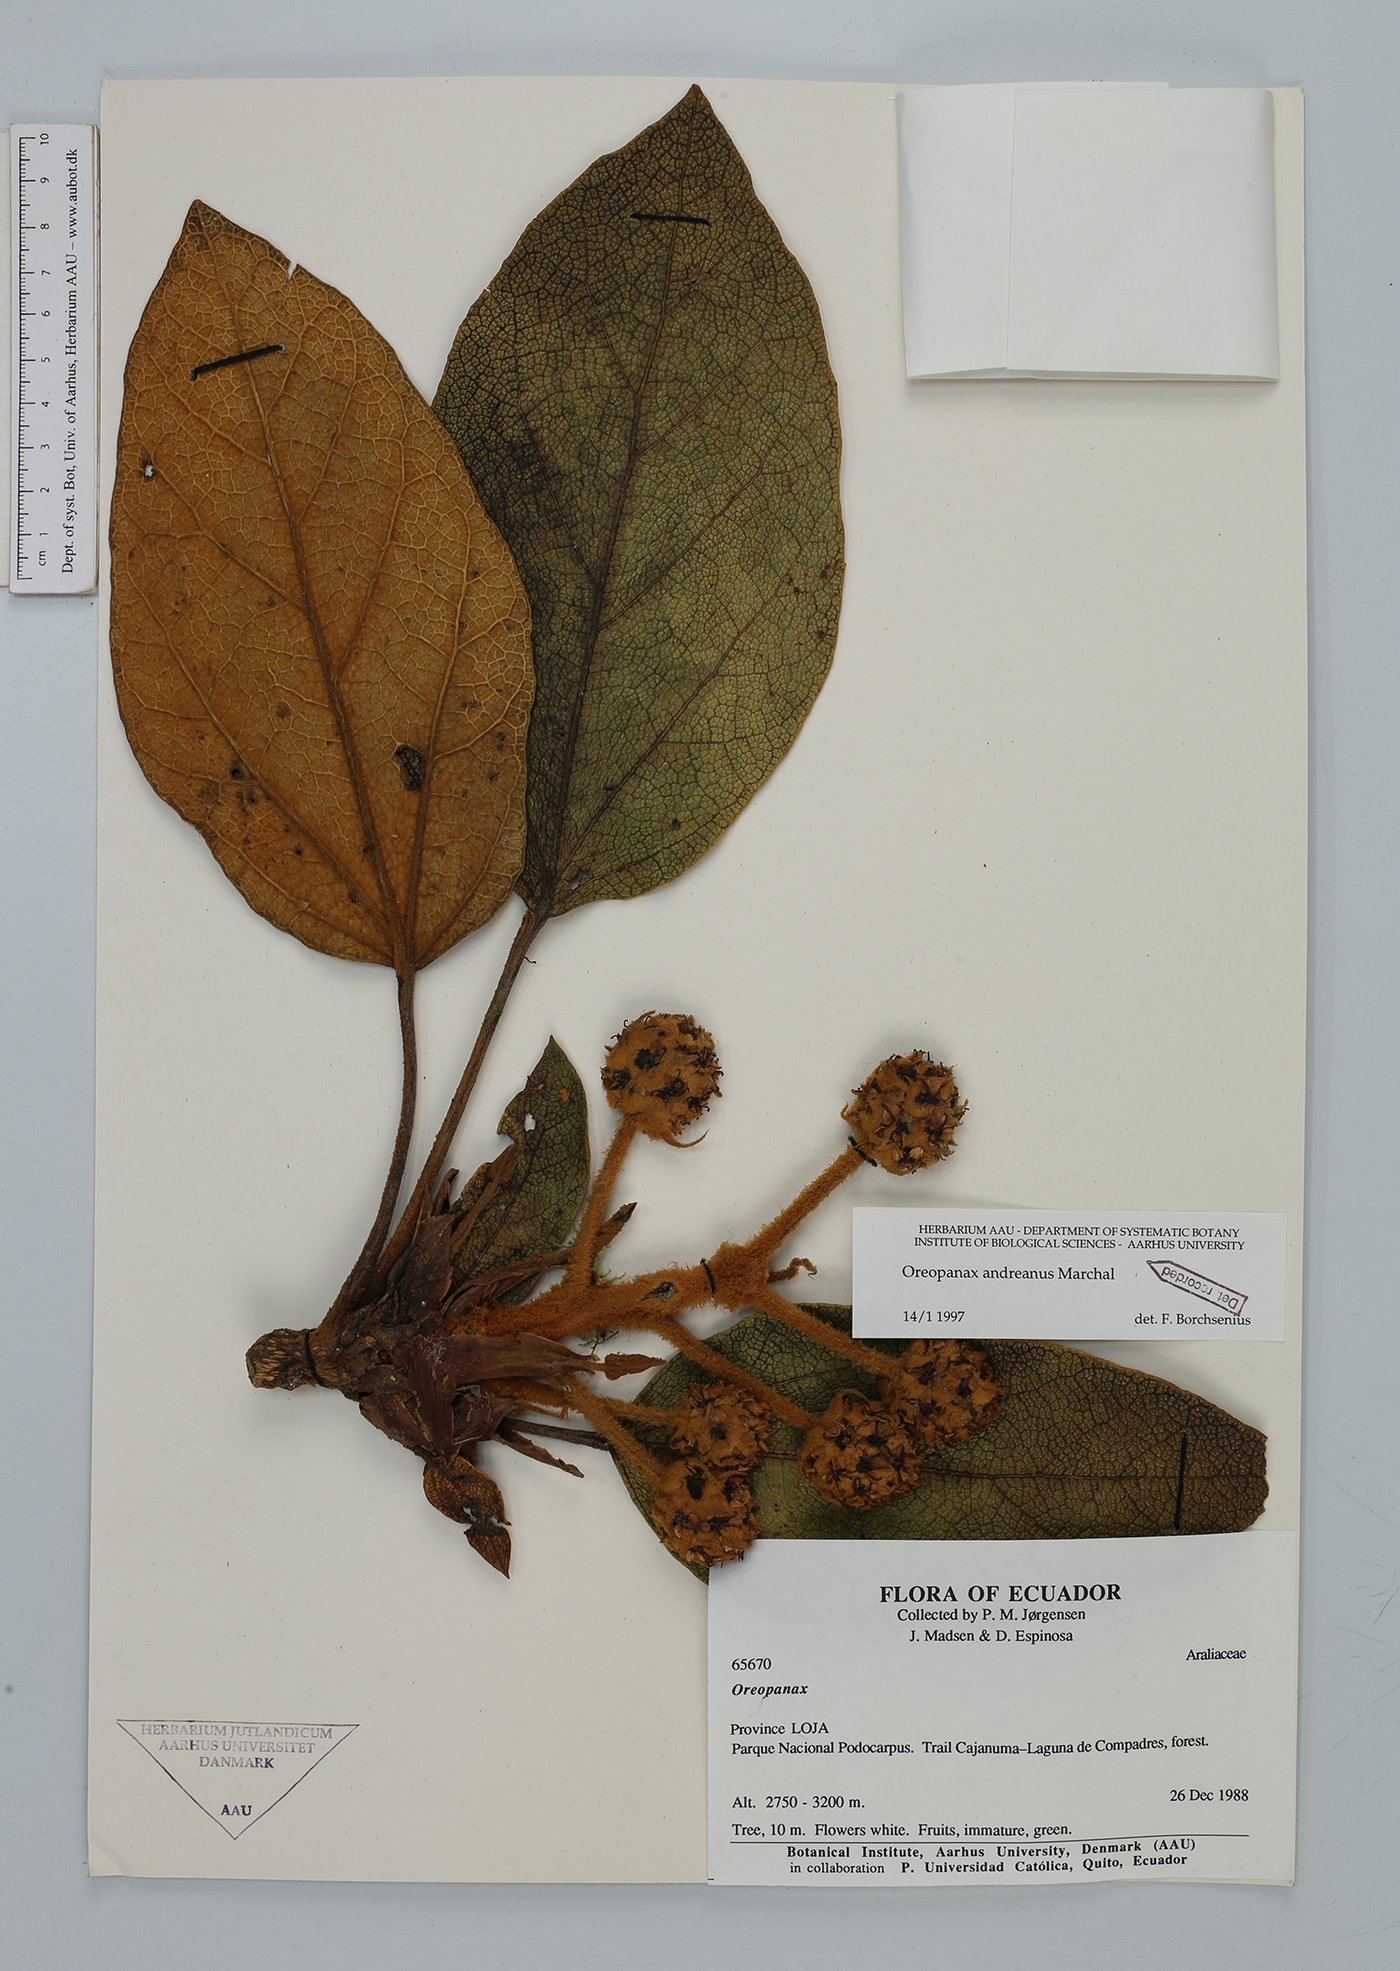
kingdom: Plantae
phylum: Tracheophyta
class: Magnoliopsida
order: Apiales
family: Araliaceae
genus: Oreopanax
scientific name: Oreopanax andreanus
